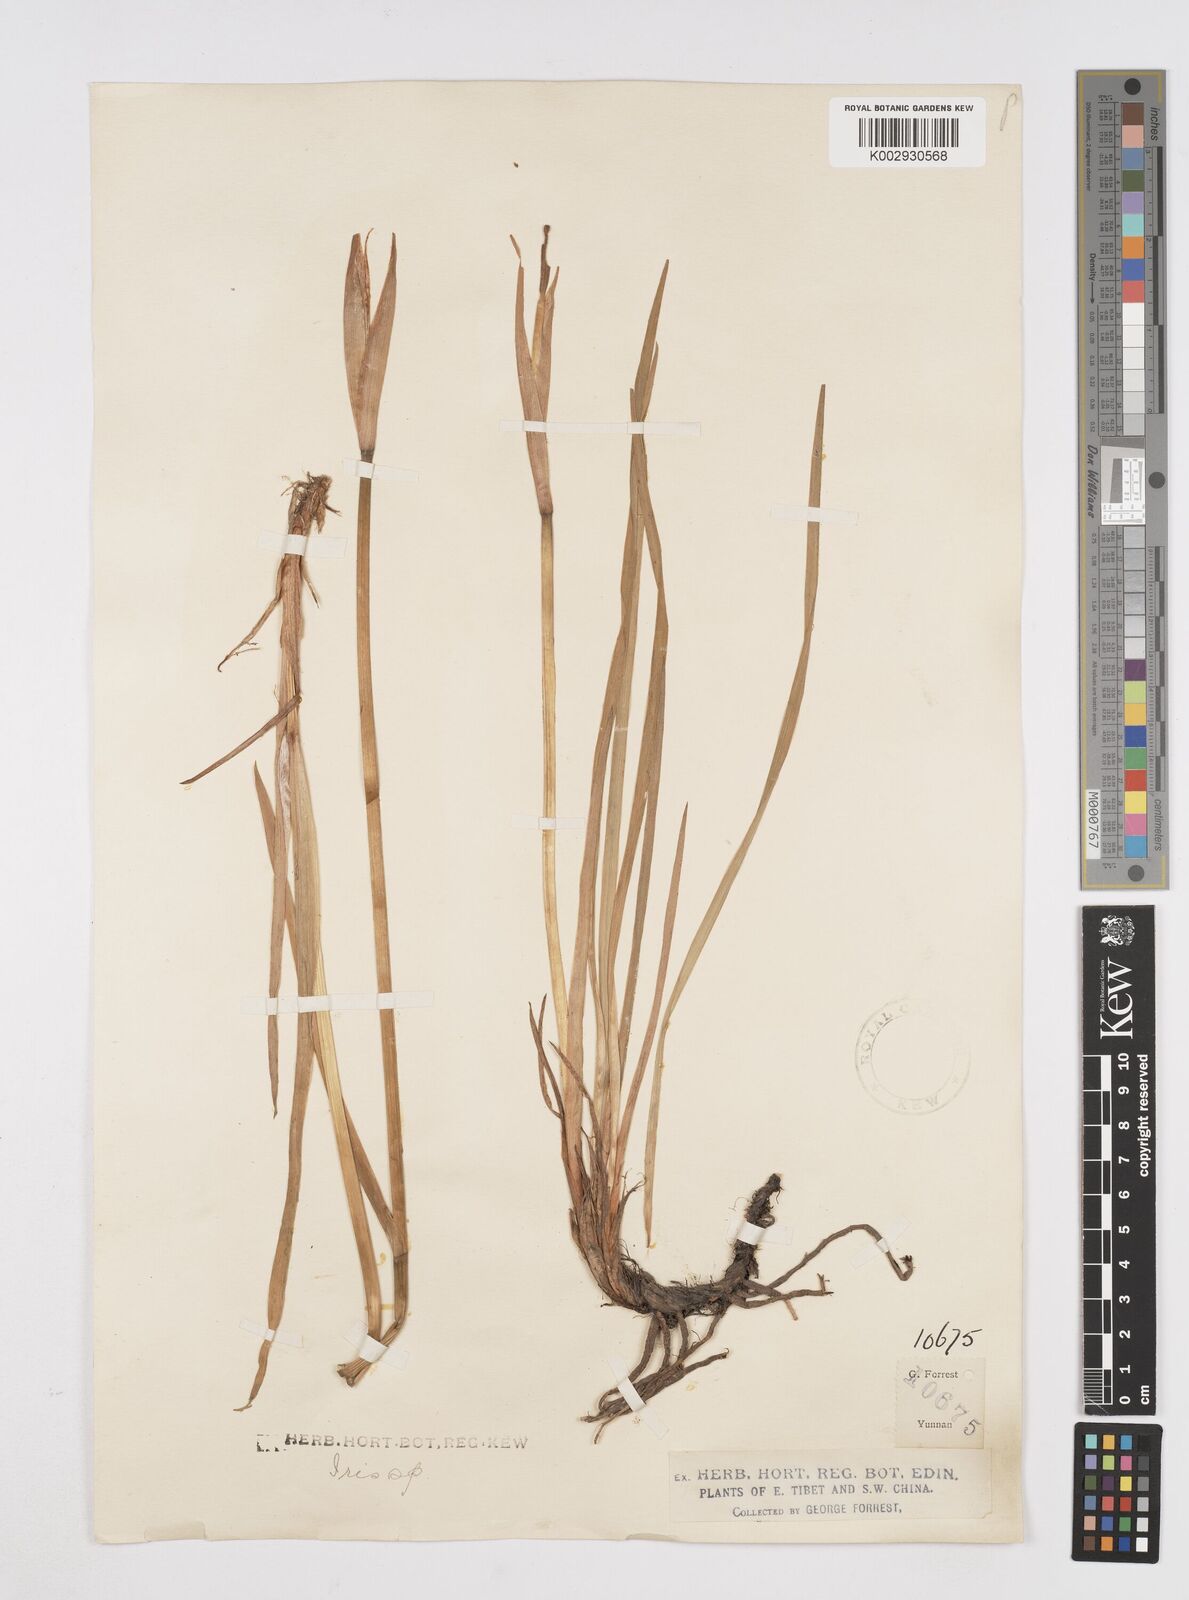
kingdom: Plantae
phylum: Tracheophyta
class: Liliopsida
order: Asparagales
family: Iridaceae
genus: Iris
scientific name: Iris bulleyana
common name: Southwest iris
